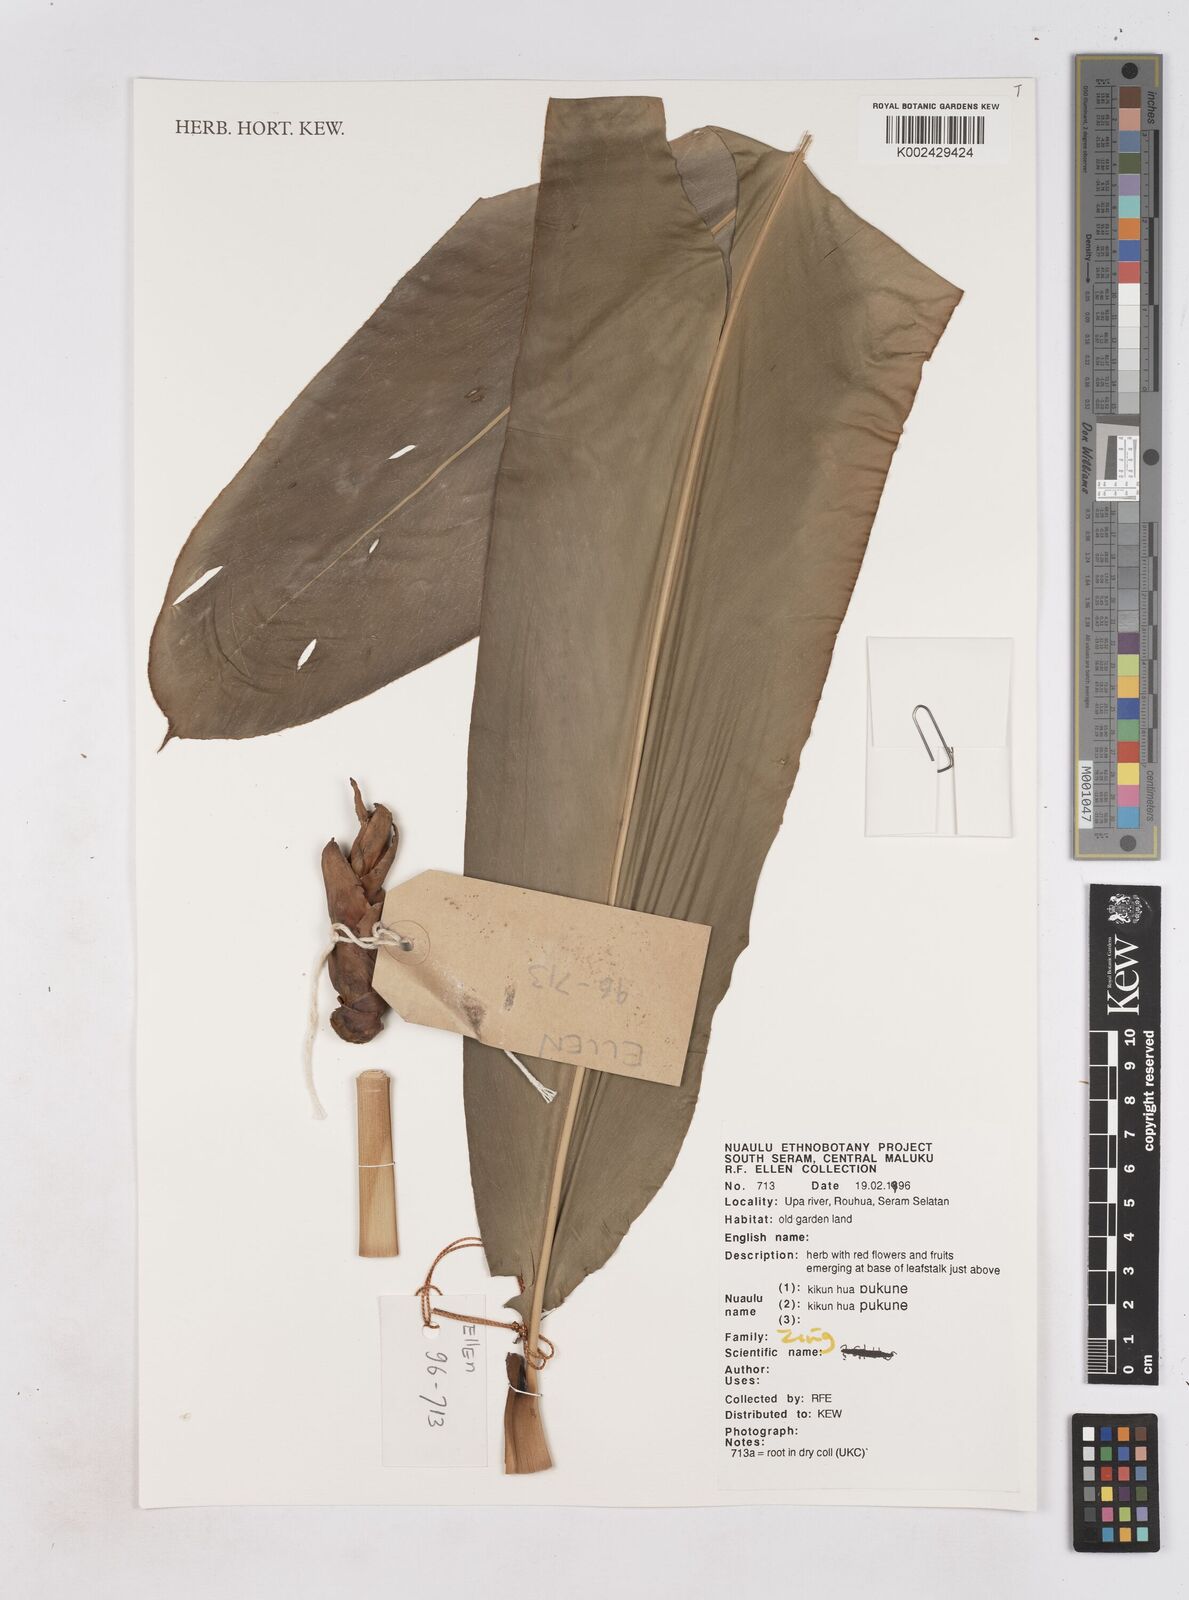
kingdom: Plantae
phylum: Tracheophyta
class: Liliopsida
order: Zingiberales
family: Zingiberaceae
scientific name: Zingiberaceae
